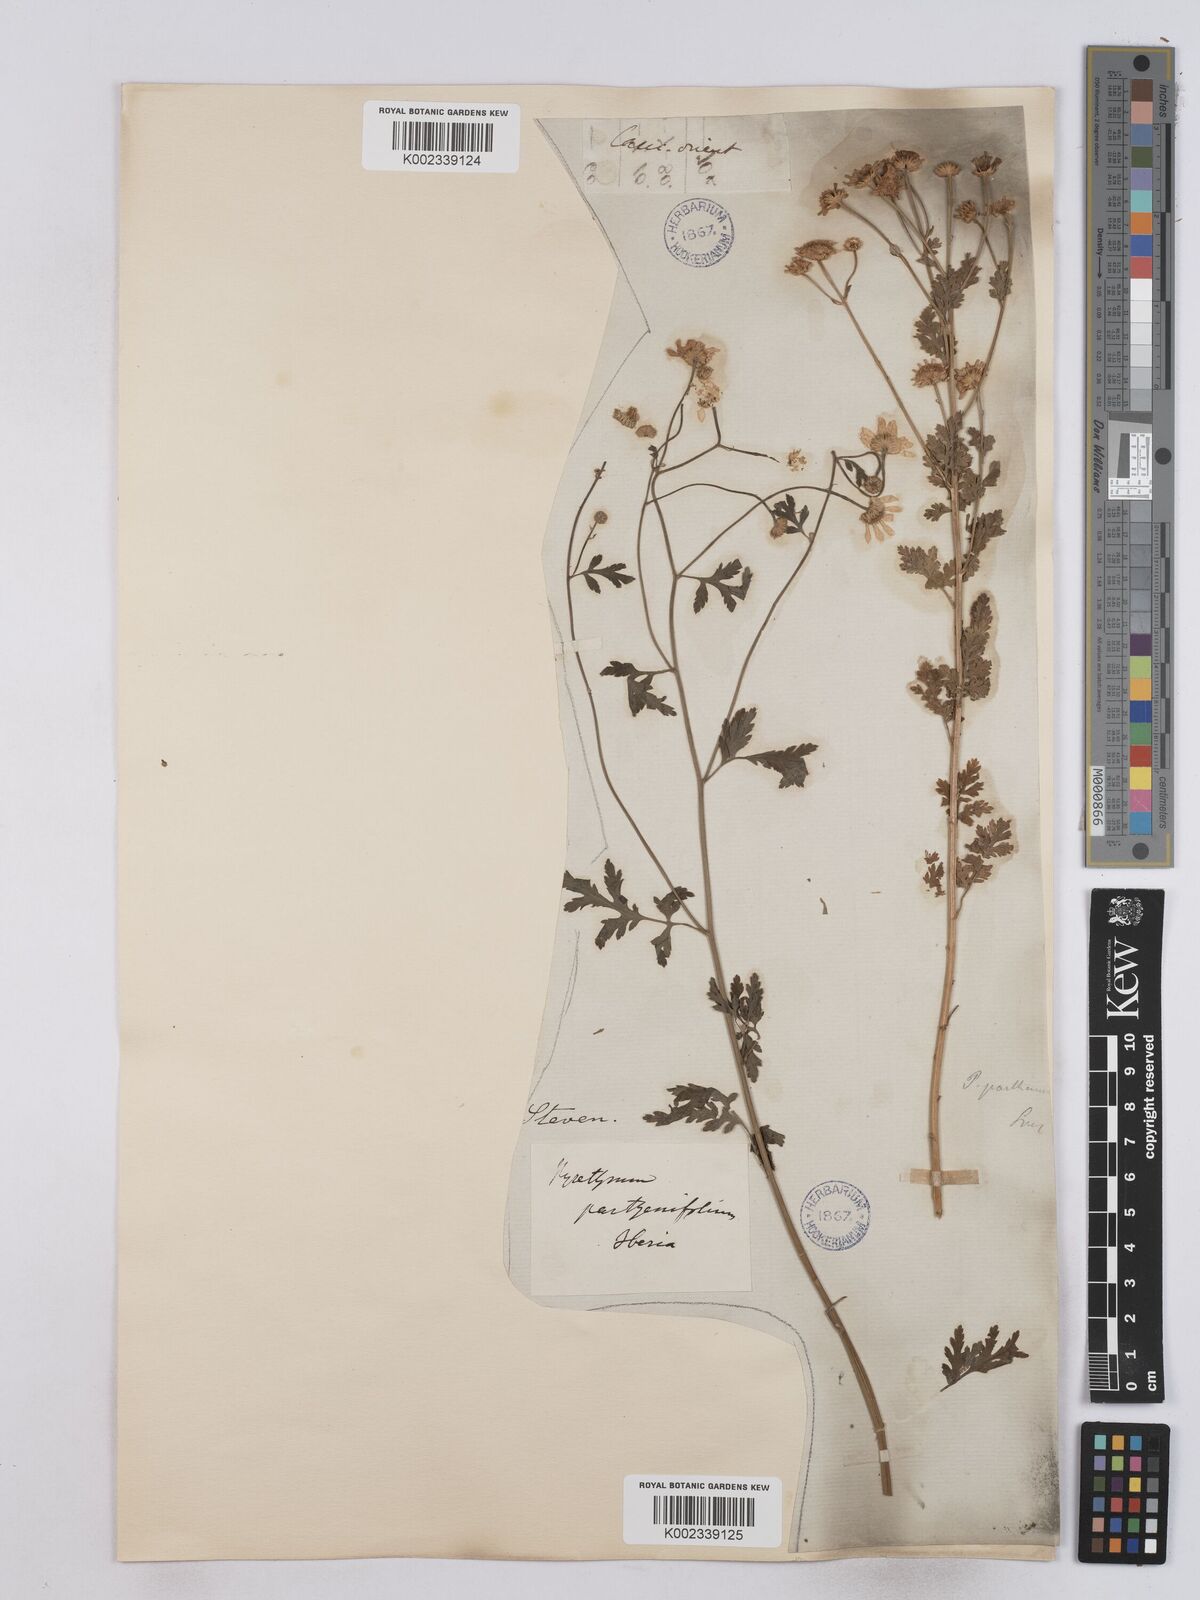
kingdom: Plantae
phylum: Tracheophyta
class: Magnoliopsida
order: Asterales
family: Asteraceae
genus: Tanacetum
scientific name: Tanacetum partheniifolium
